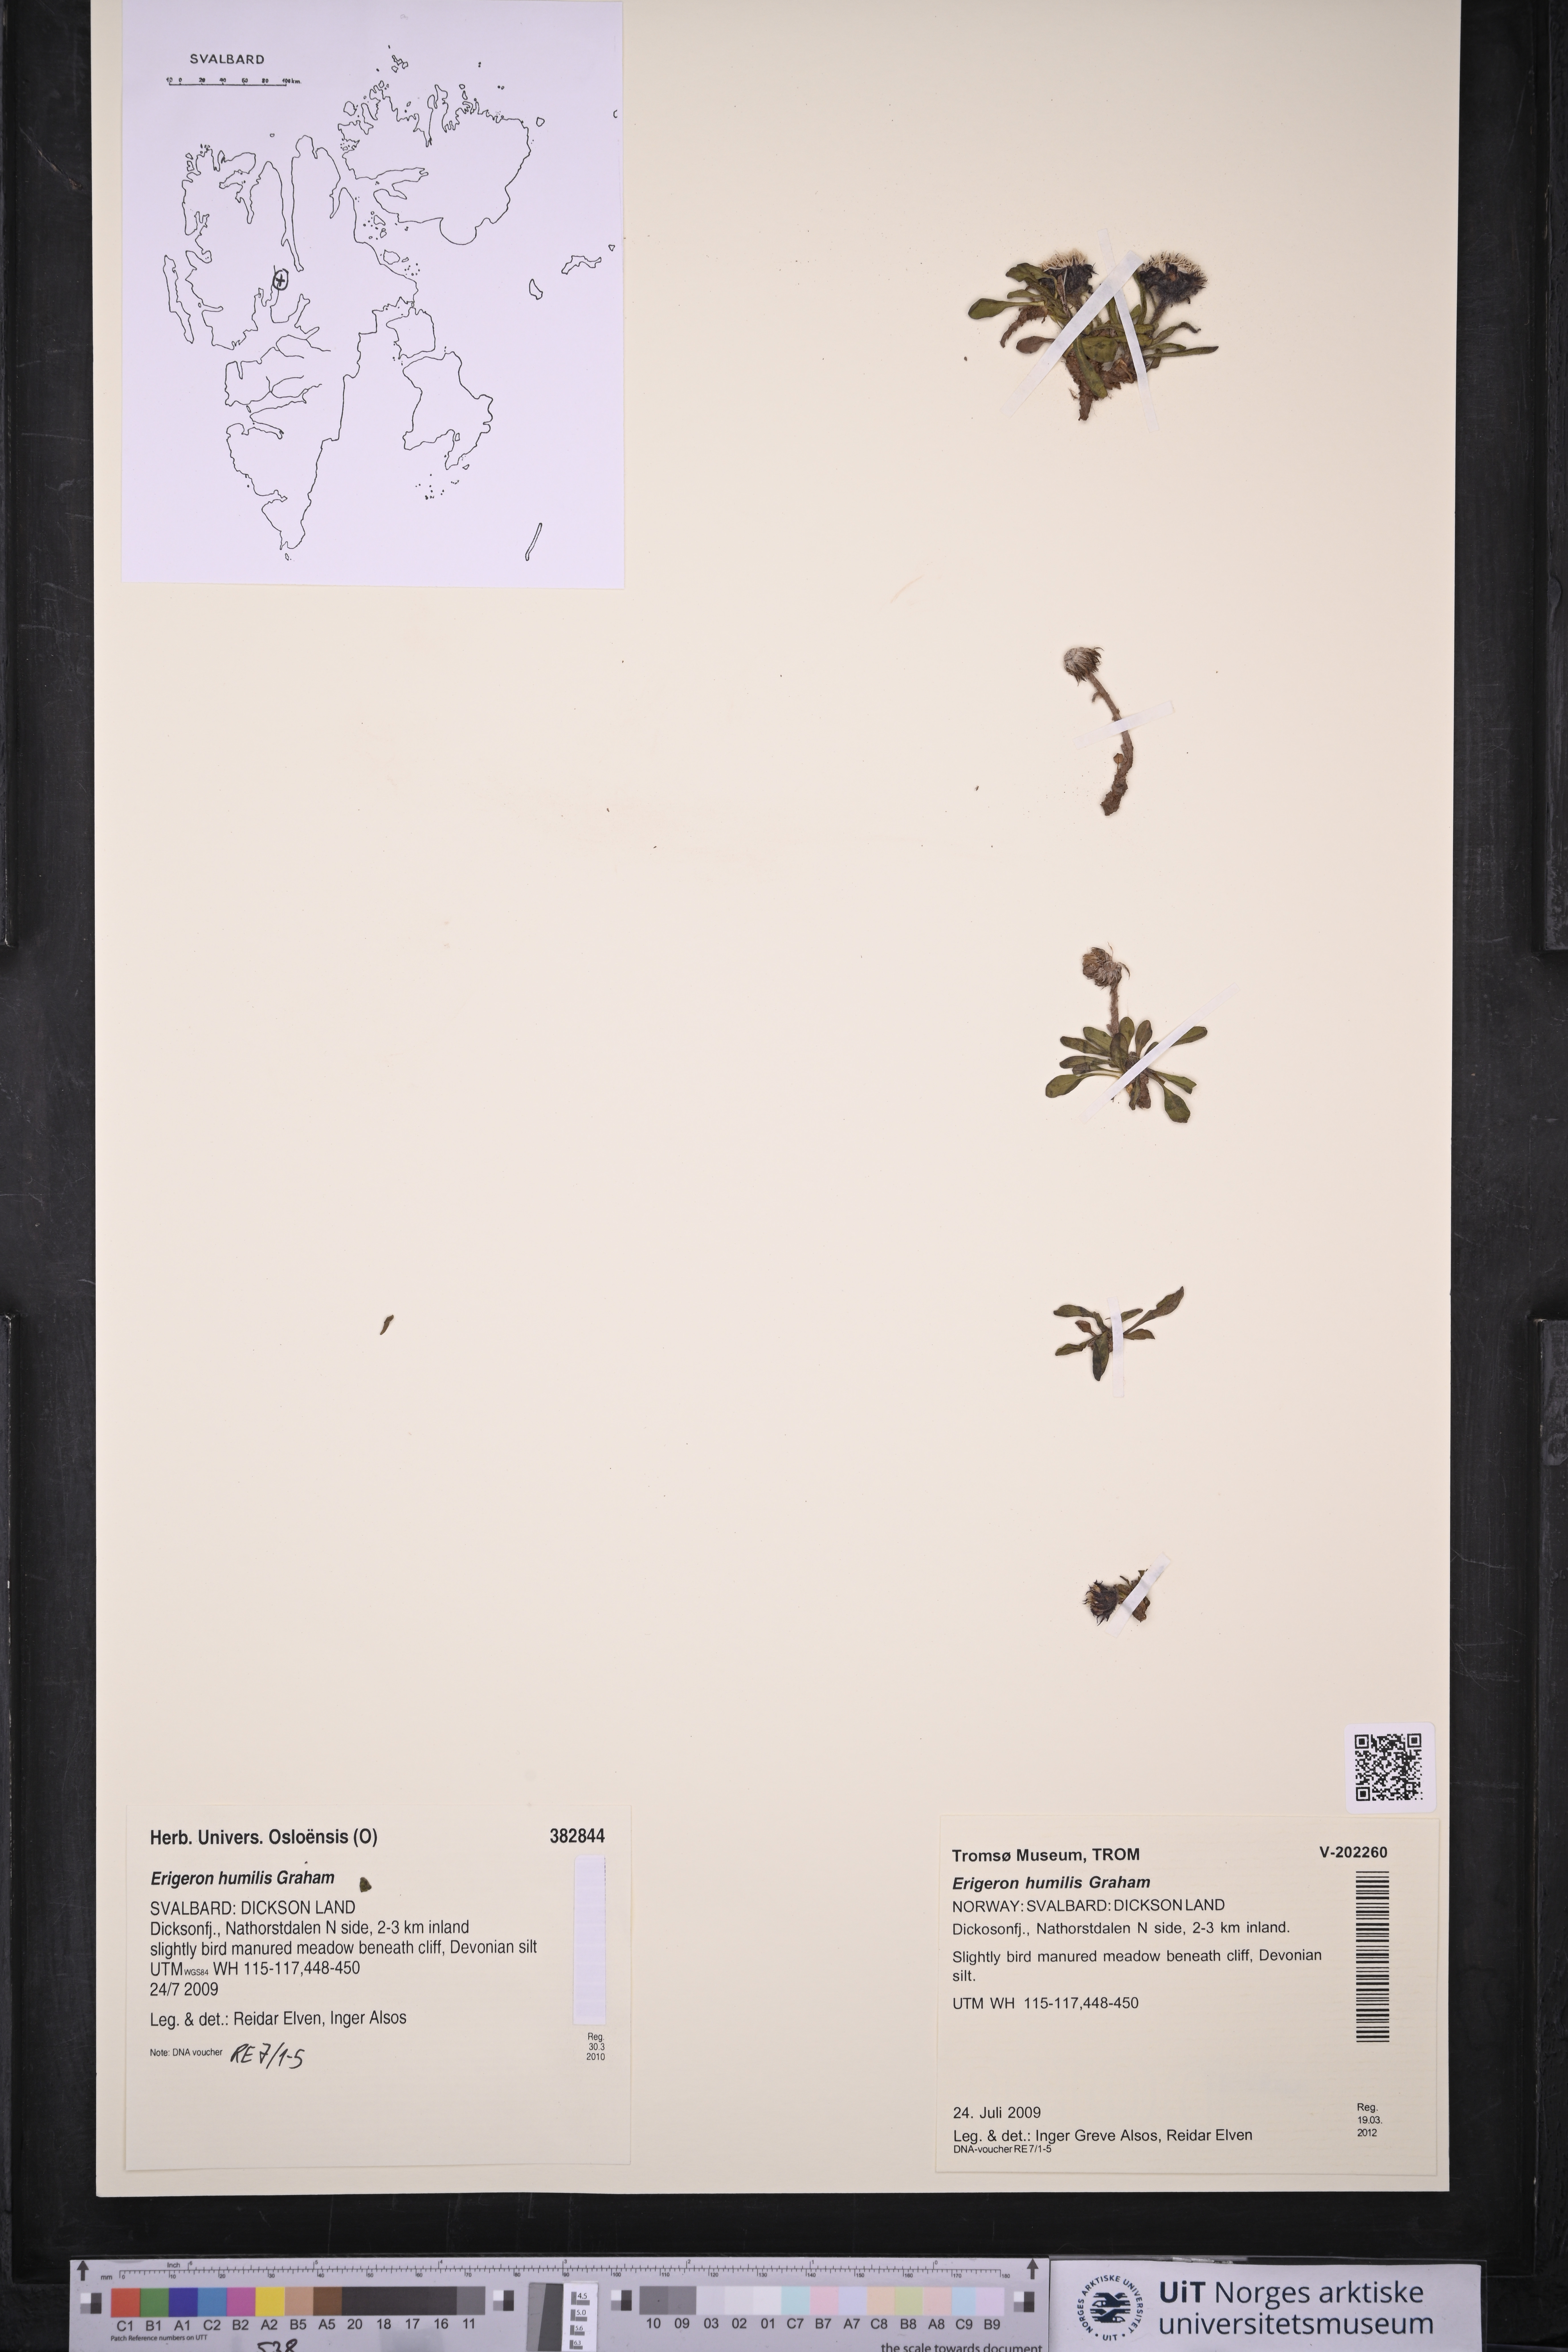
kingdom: Plantae
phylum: Tracheophyta
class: Magnoliopsida
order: Asterales
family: Asteraceae
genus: Erigeron
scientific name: Erigeron humilis
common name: Arctic-alpine fleabane
